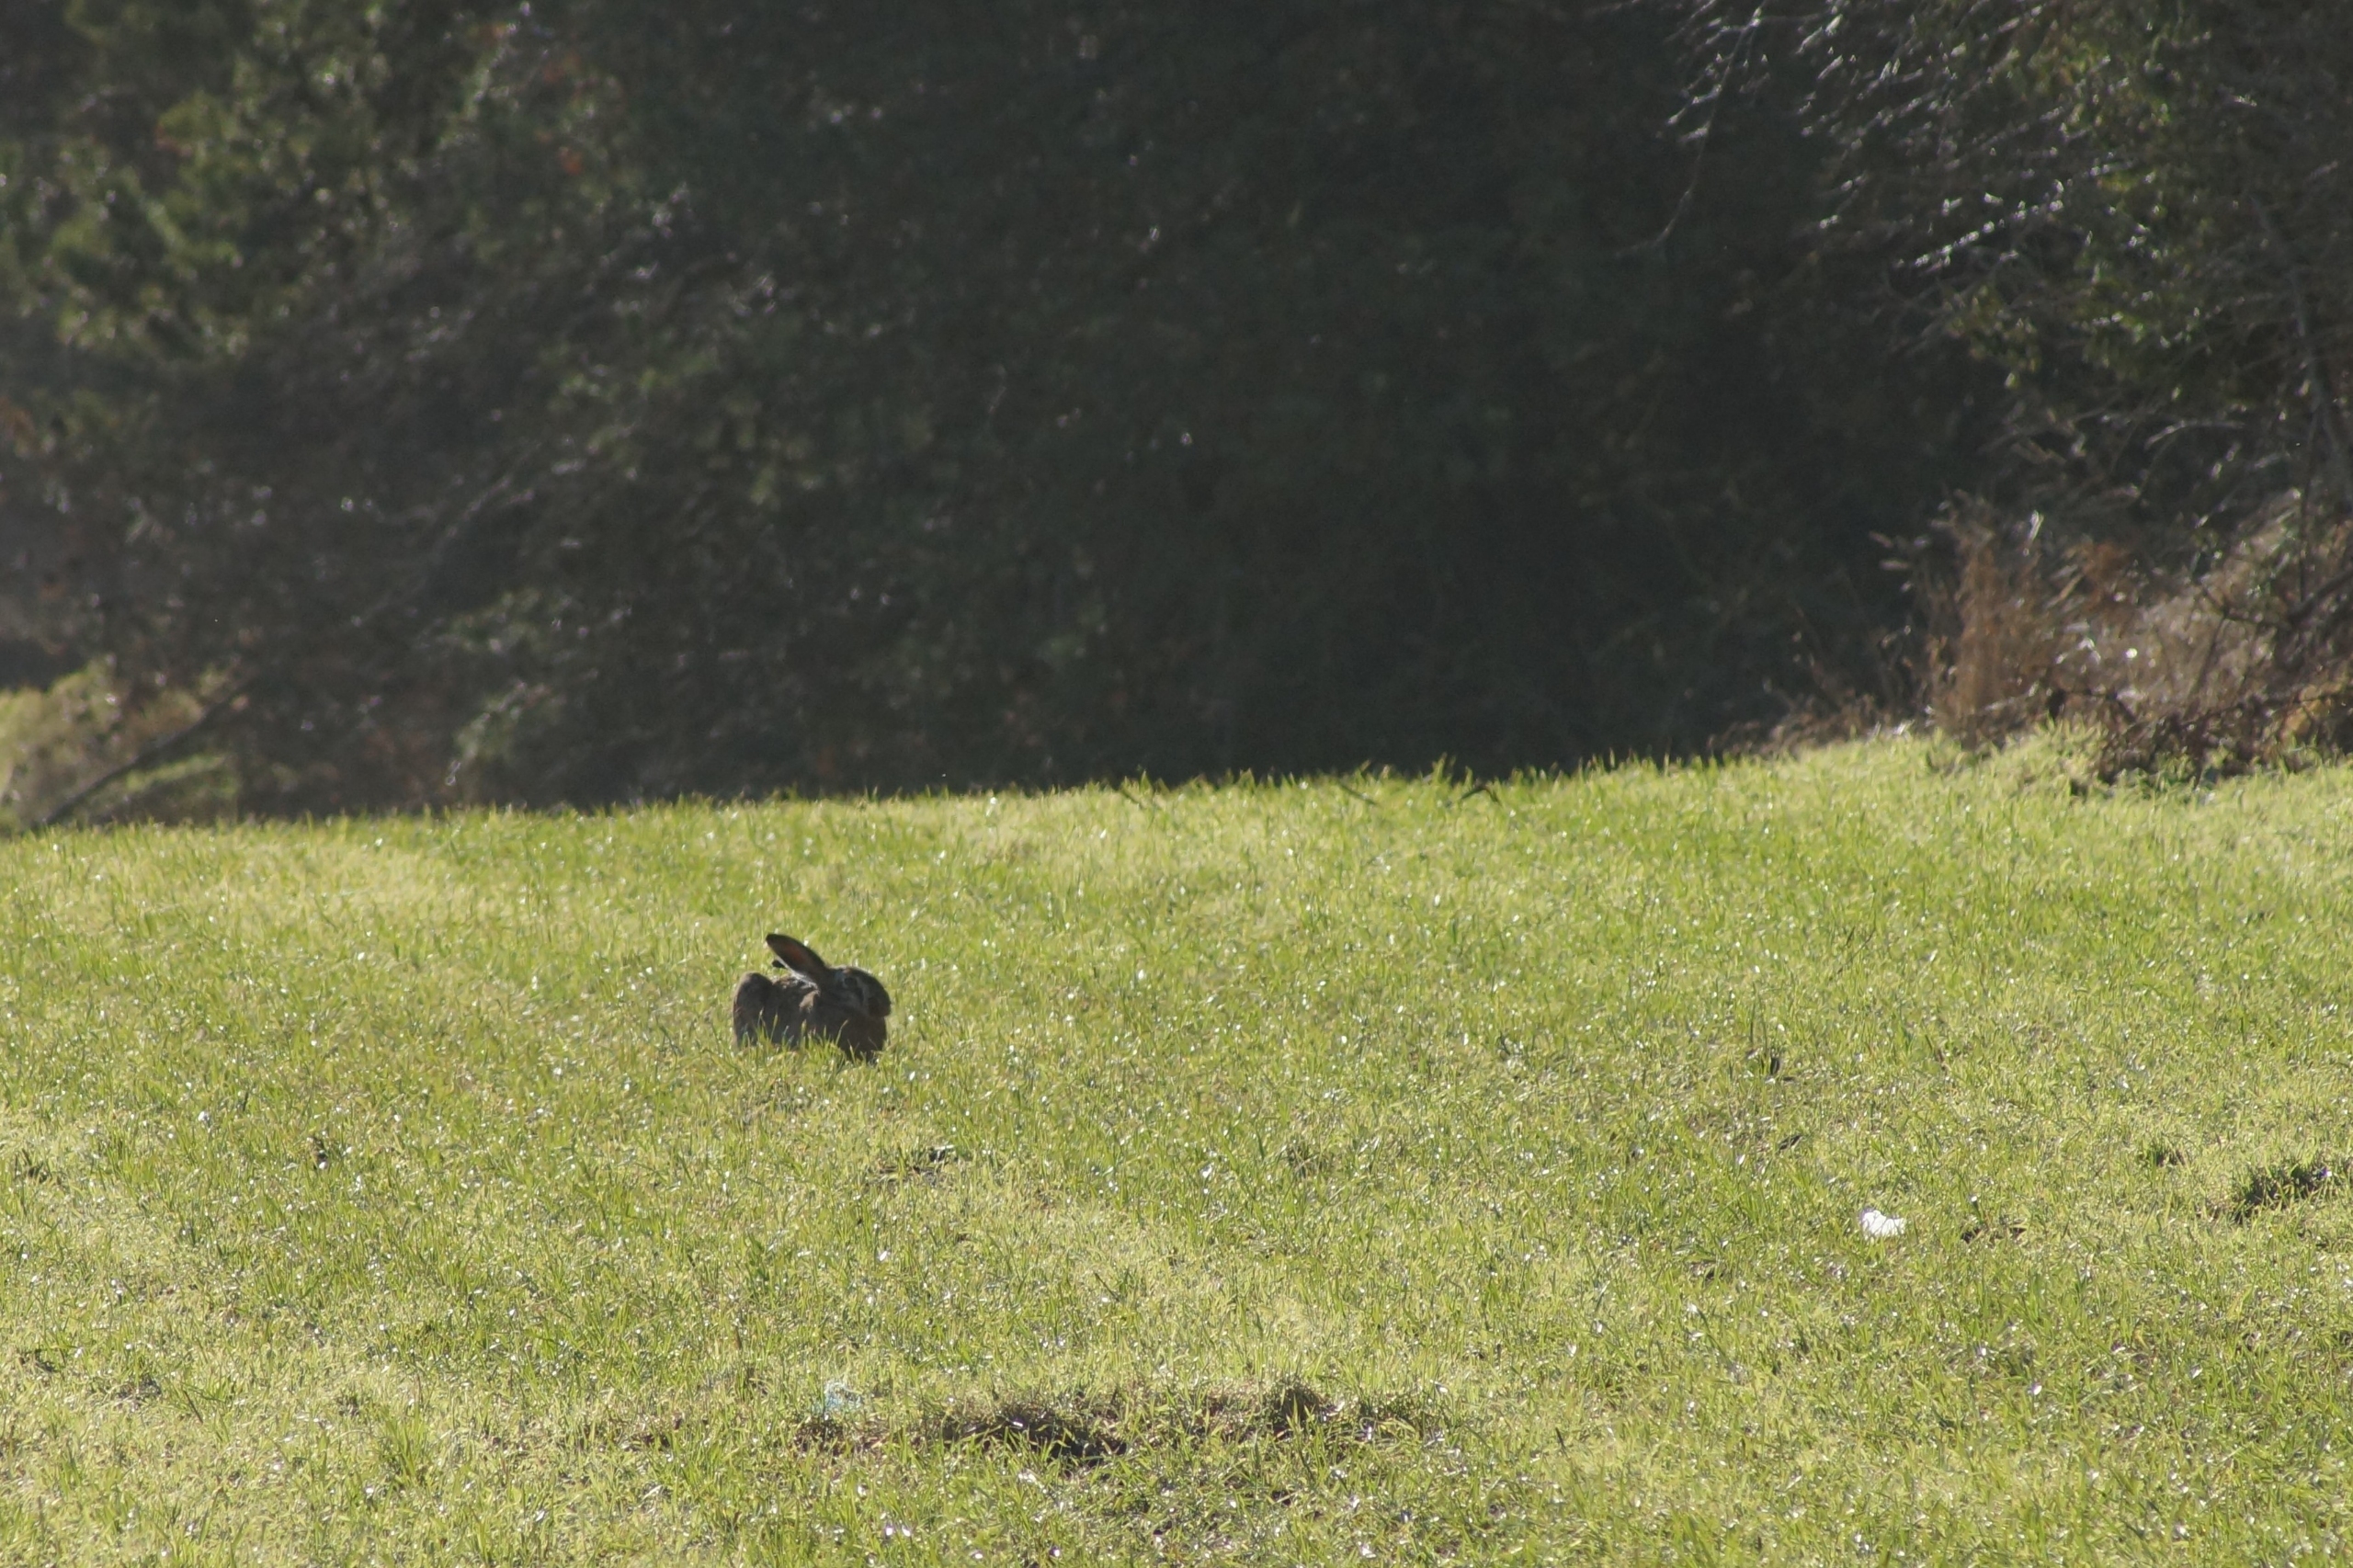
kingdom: Animalia
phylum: Chordata
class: Mammalia
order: Lagomorpha
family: Leporidae
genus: Lepus
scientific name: Lepus europaeus
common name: Hare
